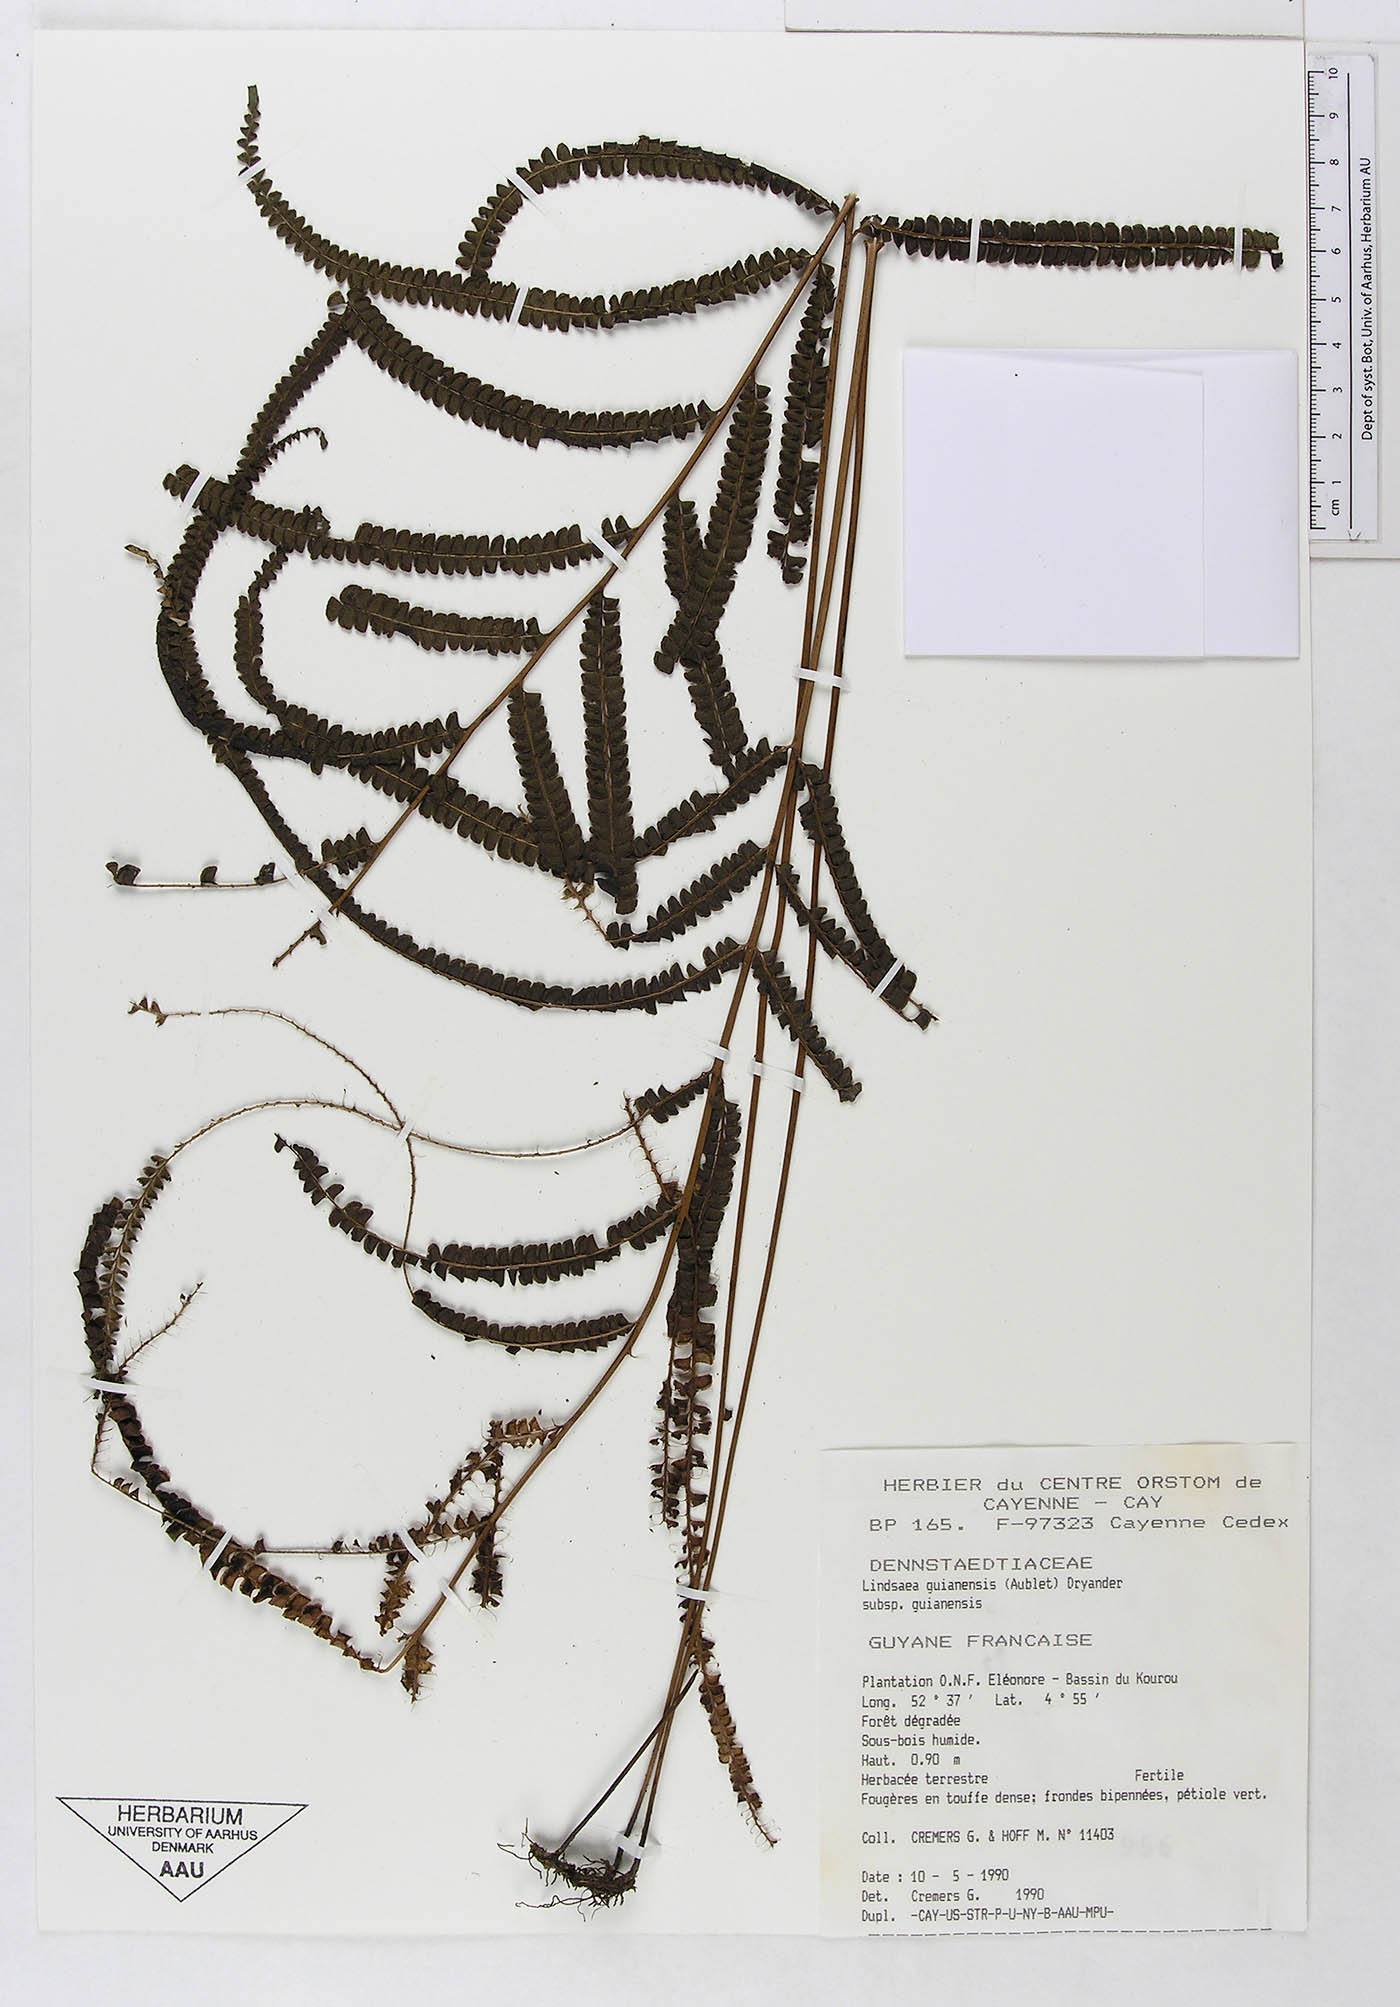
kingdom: Plantae
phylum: Tracheophyta
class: Polypodiopsida
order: Polypodiales
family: Lindsaeaceae
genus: Lindsaea
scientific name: Lindsaea guianensis
